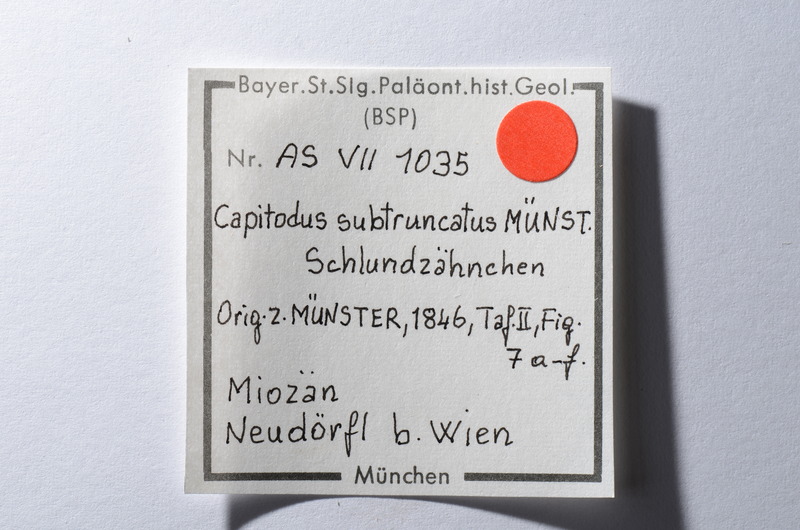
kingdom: Animalia
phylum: Chordata
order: Cypriniformes
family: Cyprinidae
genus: Capitodus
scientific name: Capitodus
